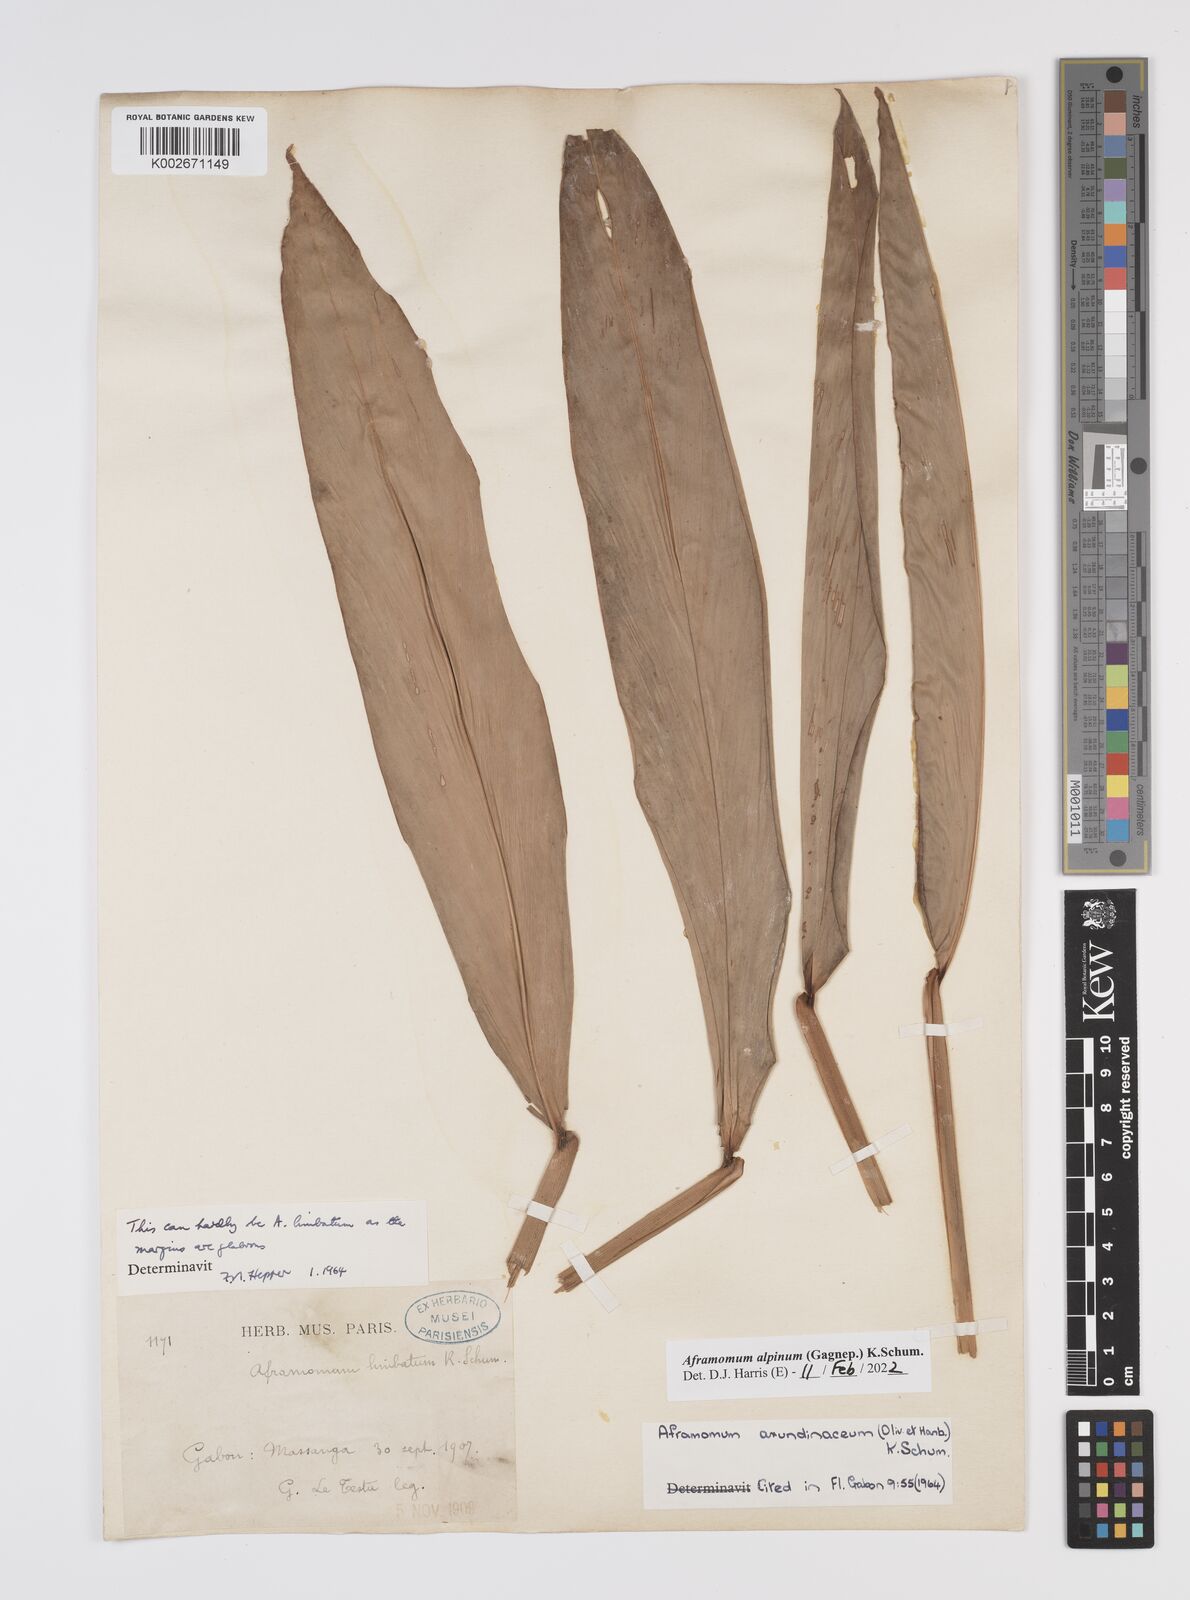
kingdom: Plantae
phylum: Tracheophyta
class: Liliopsida
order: Zingiberales
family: Zingiberaceae
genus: Aframomum
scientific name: Aframomum alpinum
